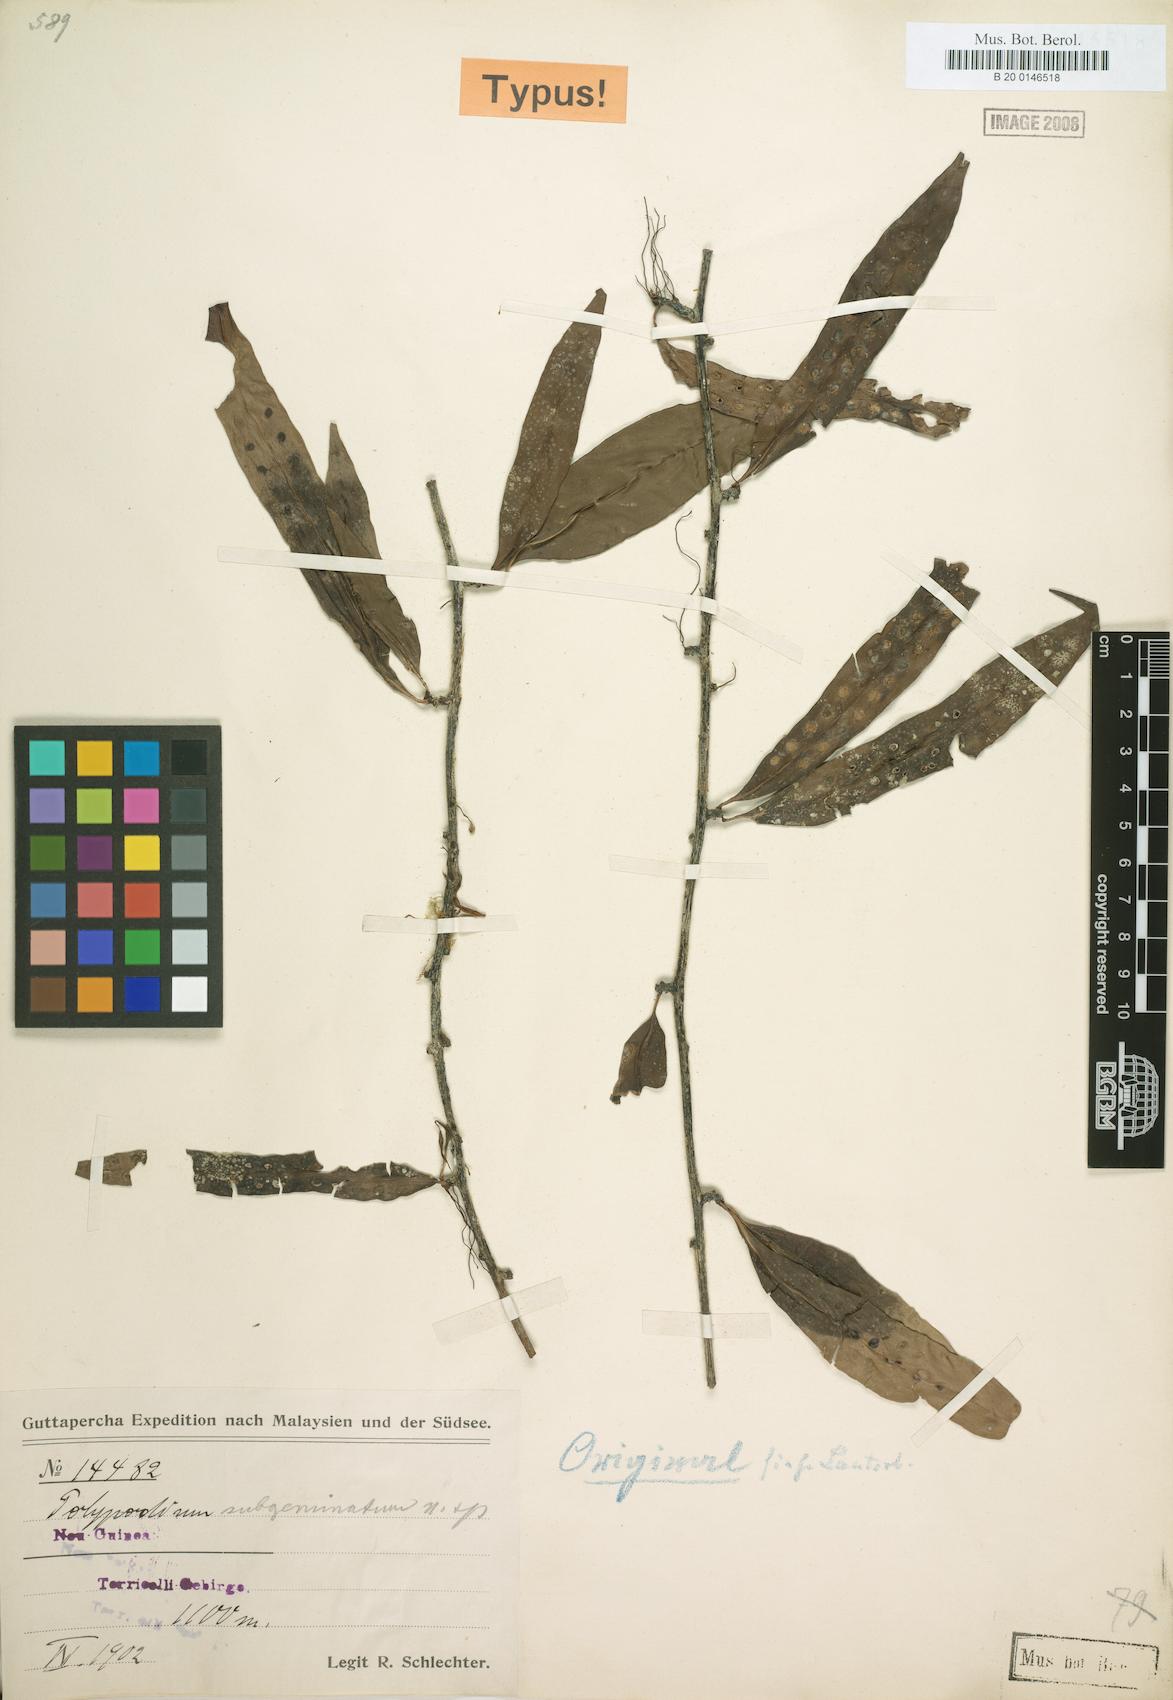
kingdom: Plantae
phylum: Tracheophyta
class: Polypodiopsida
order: Polypodiales
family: Polypodiaceae
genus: Microsorum
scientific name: Microsorum papuanum
